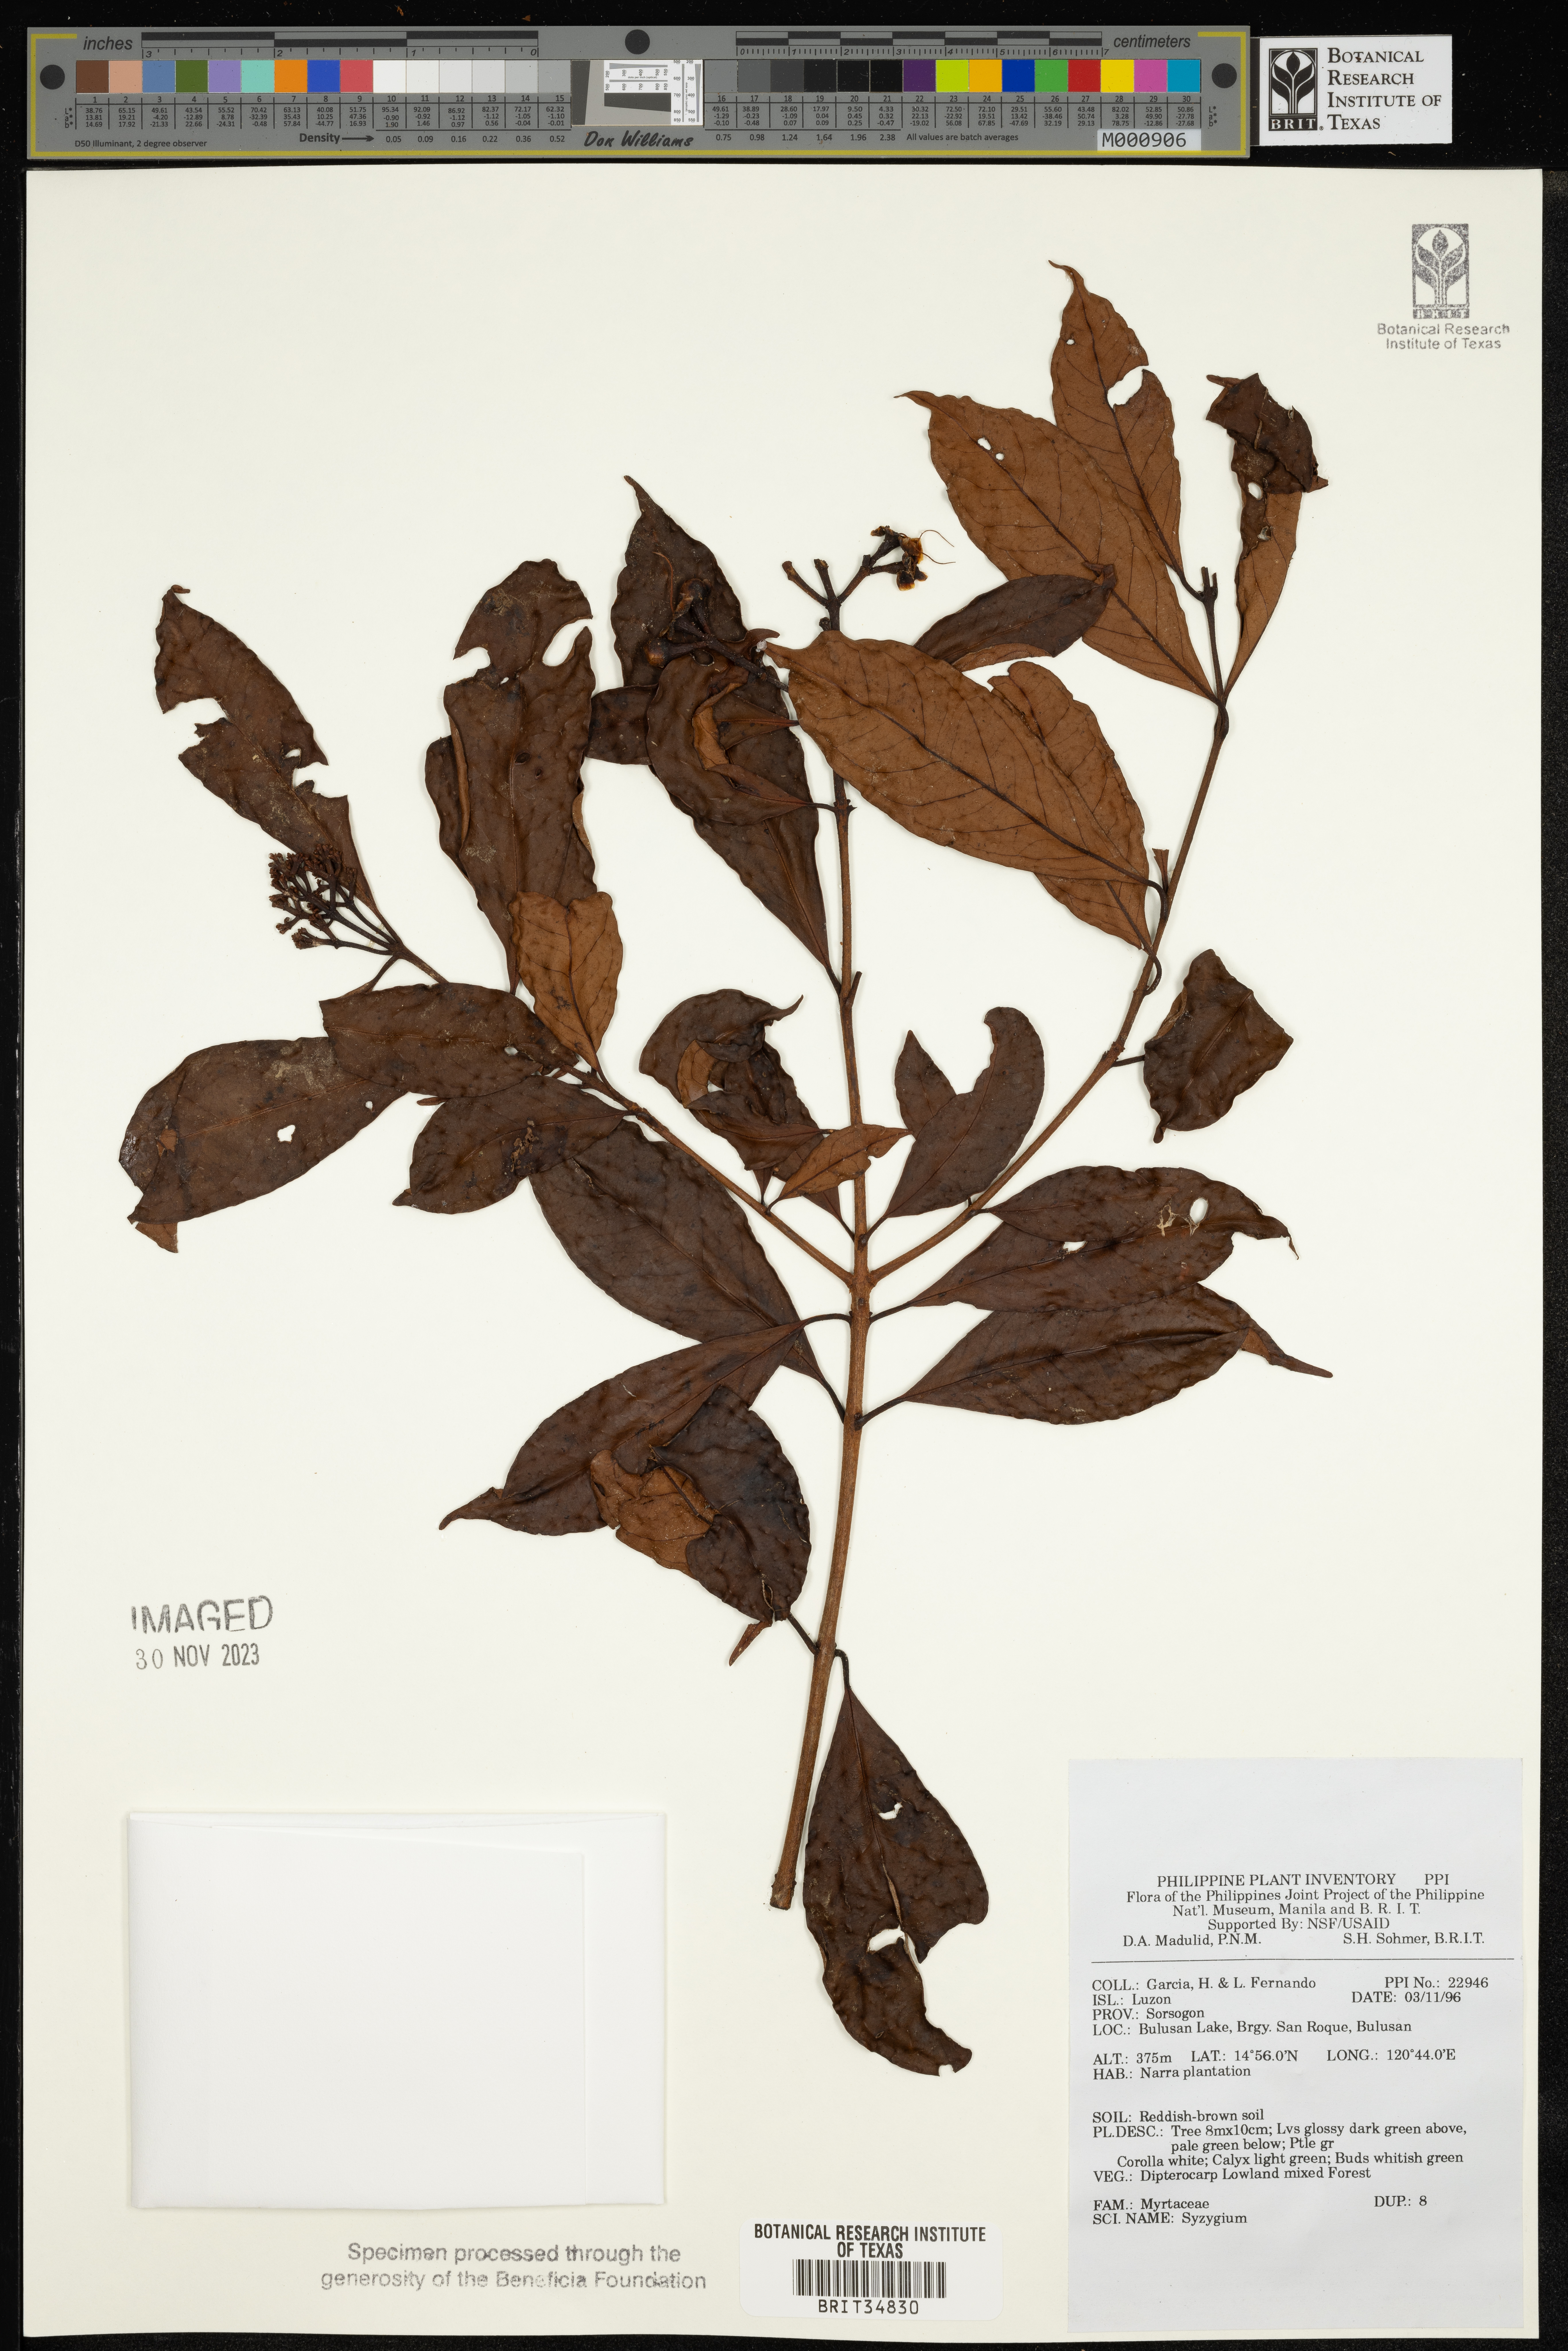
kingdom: Plantae
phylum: Tracheophyta
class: Magnoliopsida
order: Myrtales
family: Myrtaceae
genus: Syzygium
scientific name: Syzygium
